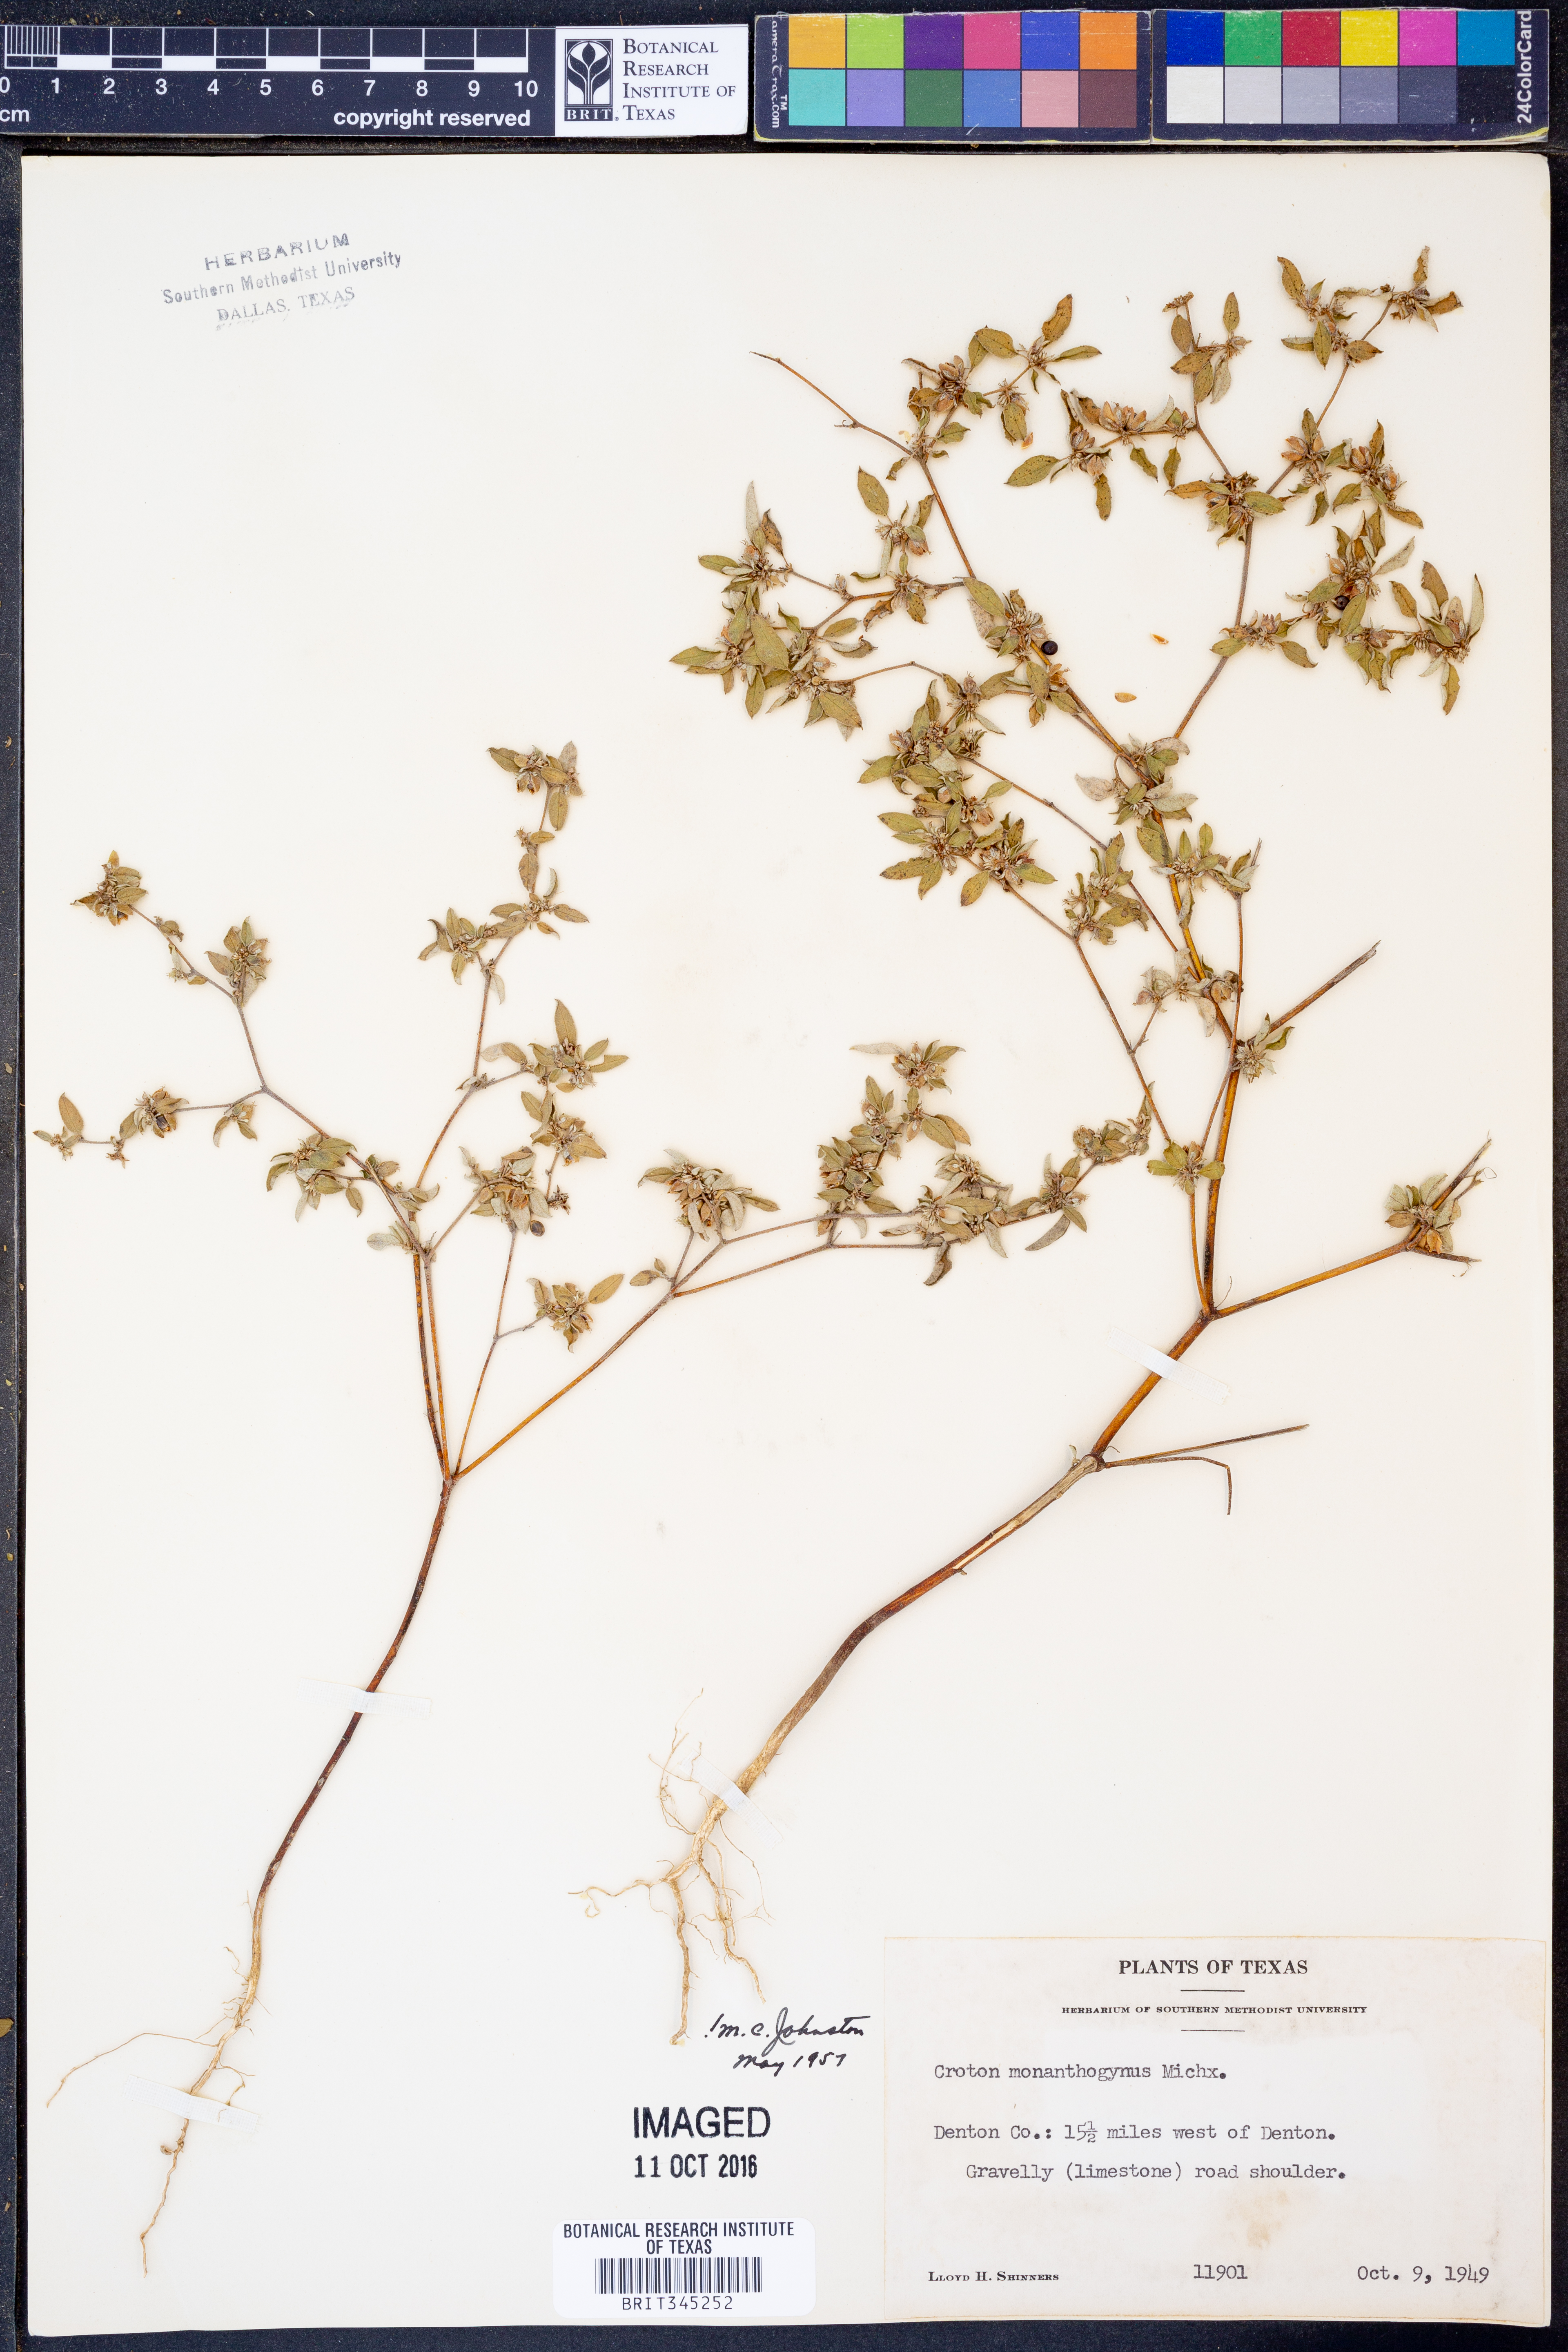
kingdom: Plantae
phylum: Tracheophyta
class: Magnoliopsida
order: Malpighiales
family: Euphorbiaceae
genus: Croton
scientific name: Croton monanthogynus
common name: One-seed croton
